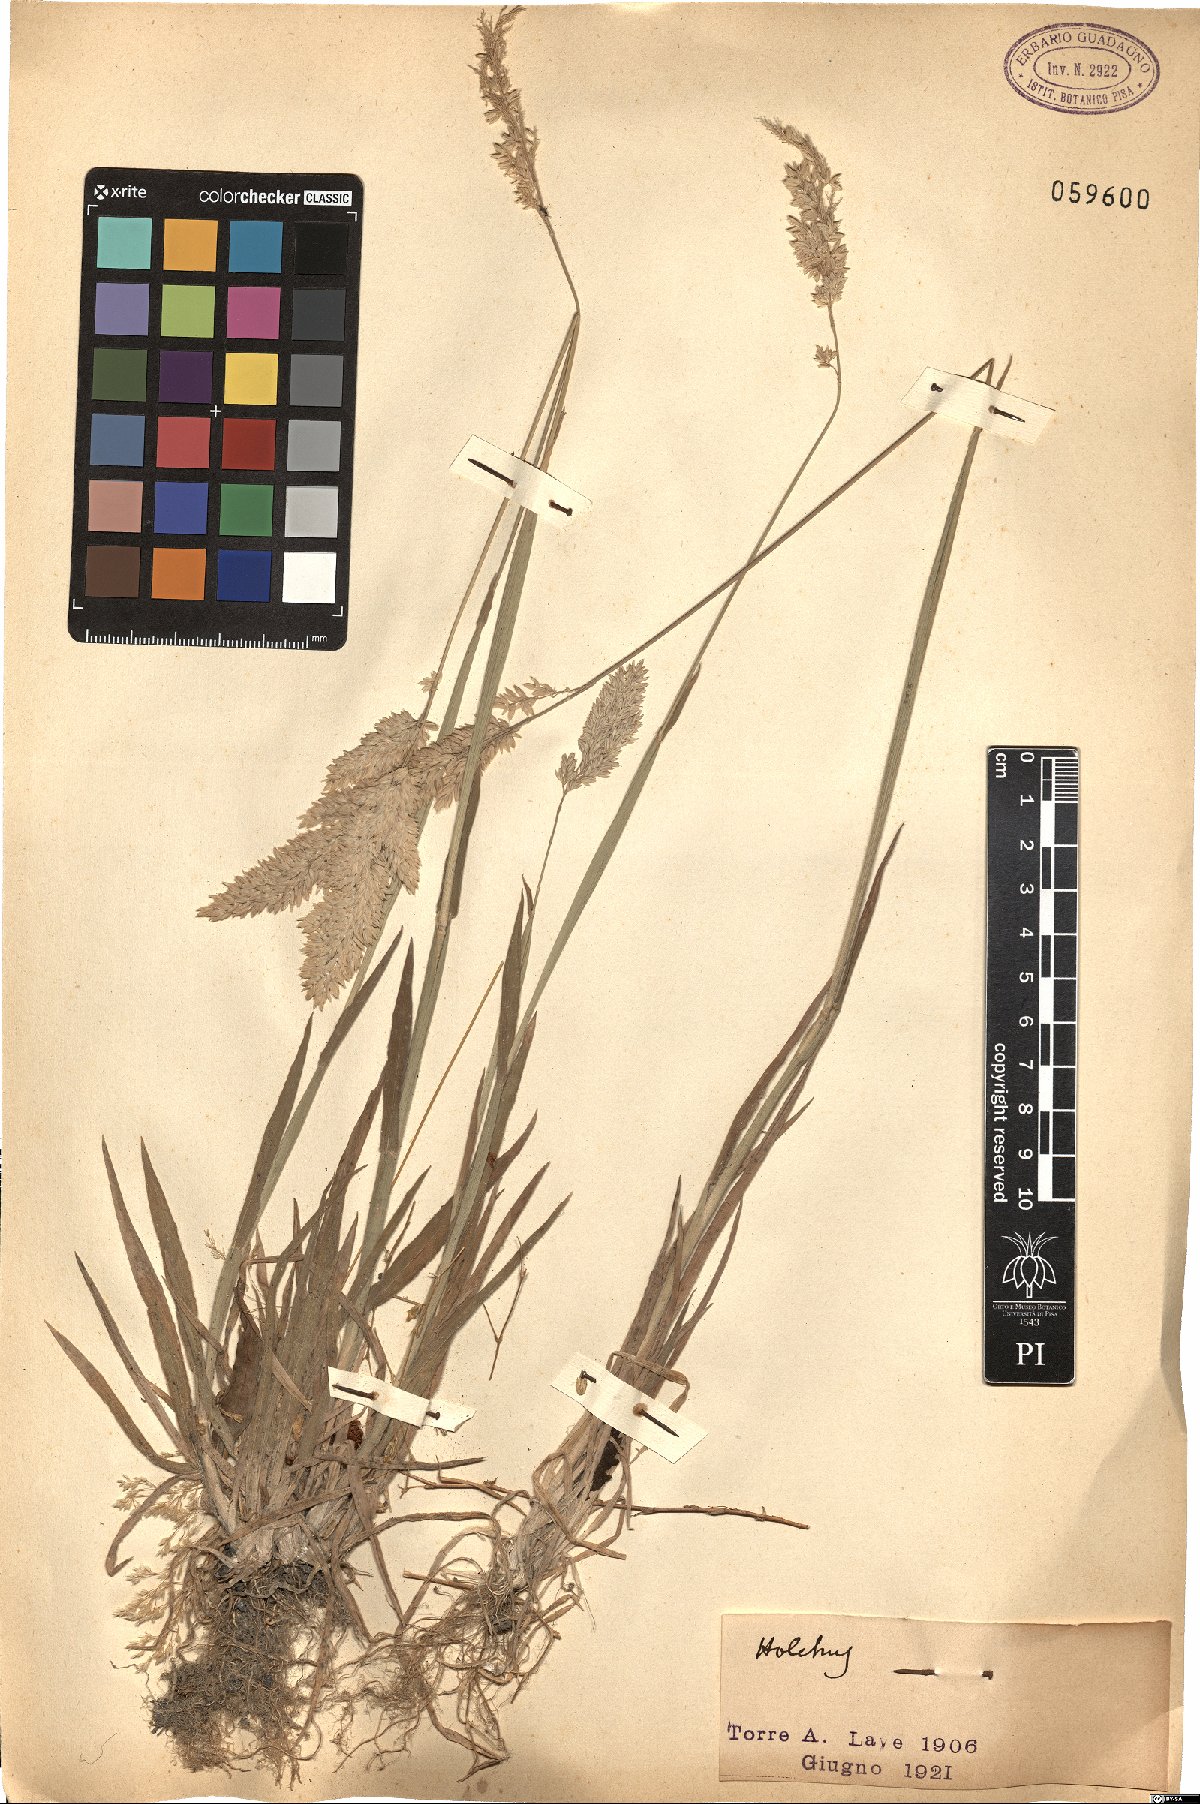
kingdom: Plantae
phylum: Tracheophyta
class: Liliopsida
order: Poales
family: Poaceae
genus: Holcus
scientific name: Holcus
